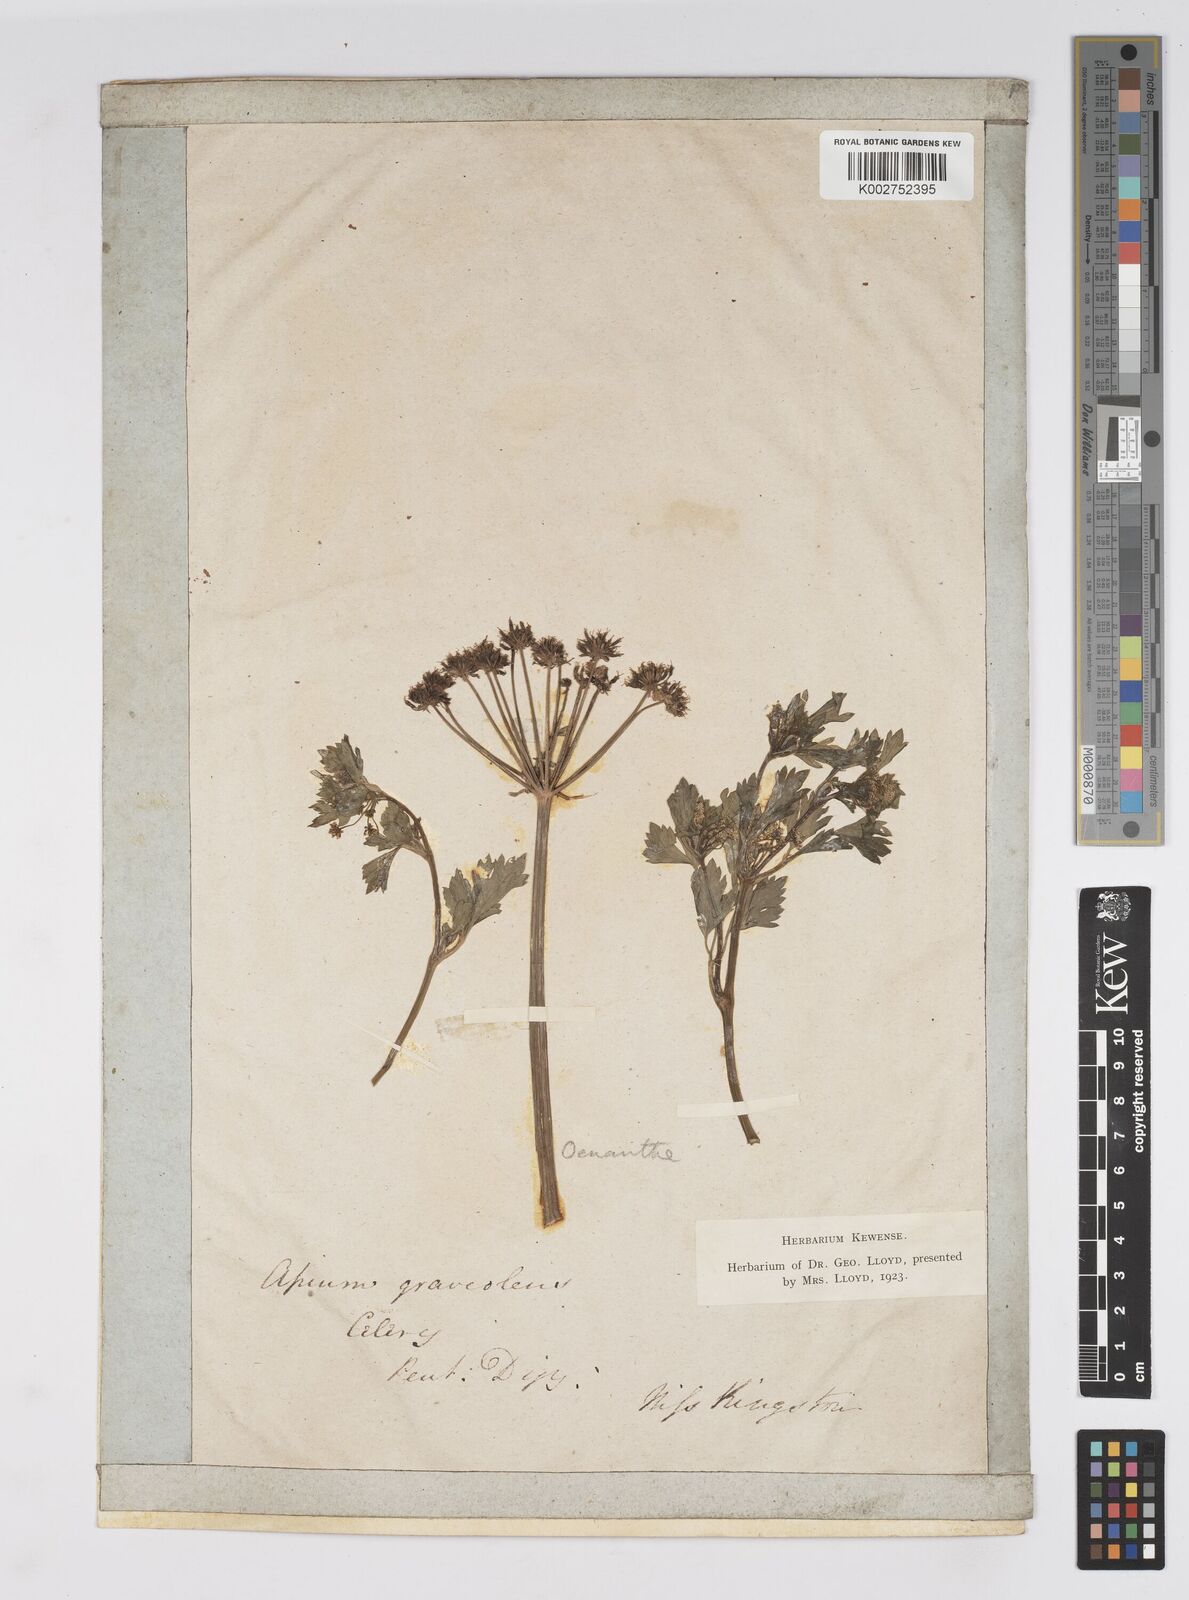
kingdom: Plantae
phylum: Tracheophyta
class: Magnoliopsida
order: Apiales
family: Apiaceae
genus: Apium
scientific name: Apium graveolens
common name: Wild celery
